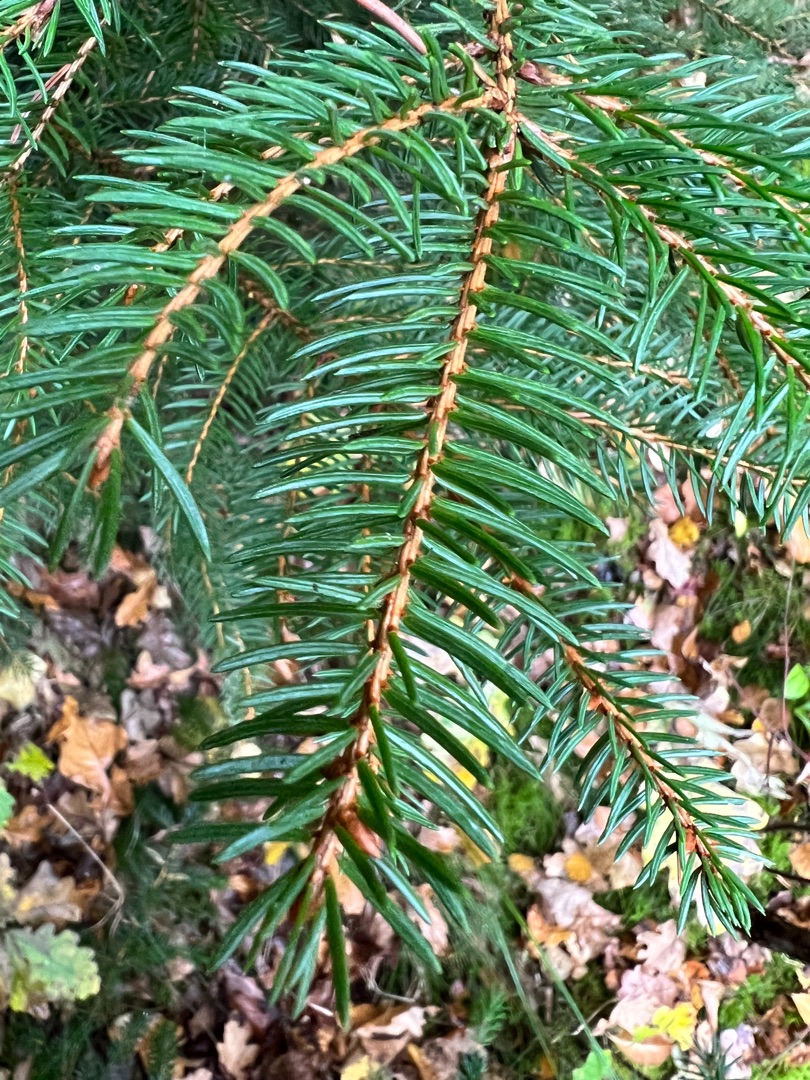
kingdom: Plantae
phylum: Tracheophyta
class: Pinopsida
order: Pinales
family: Pinaceae
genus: Picea
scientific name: Picea abies
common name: Rød-gran
